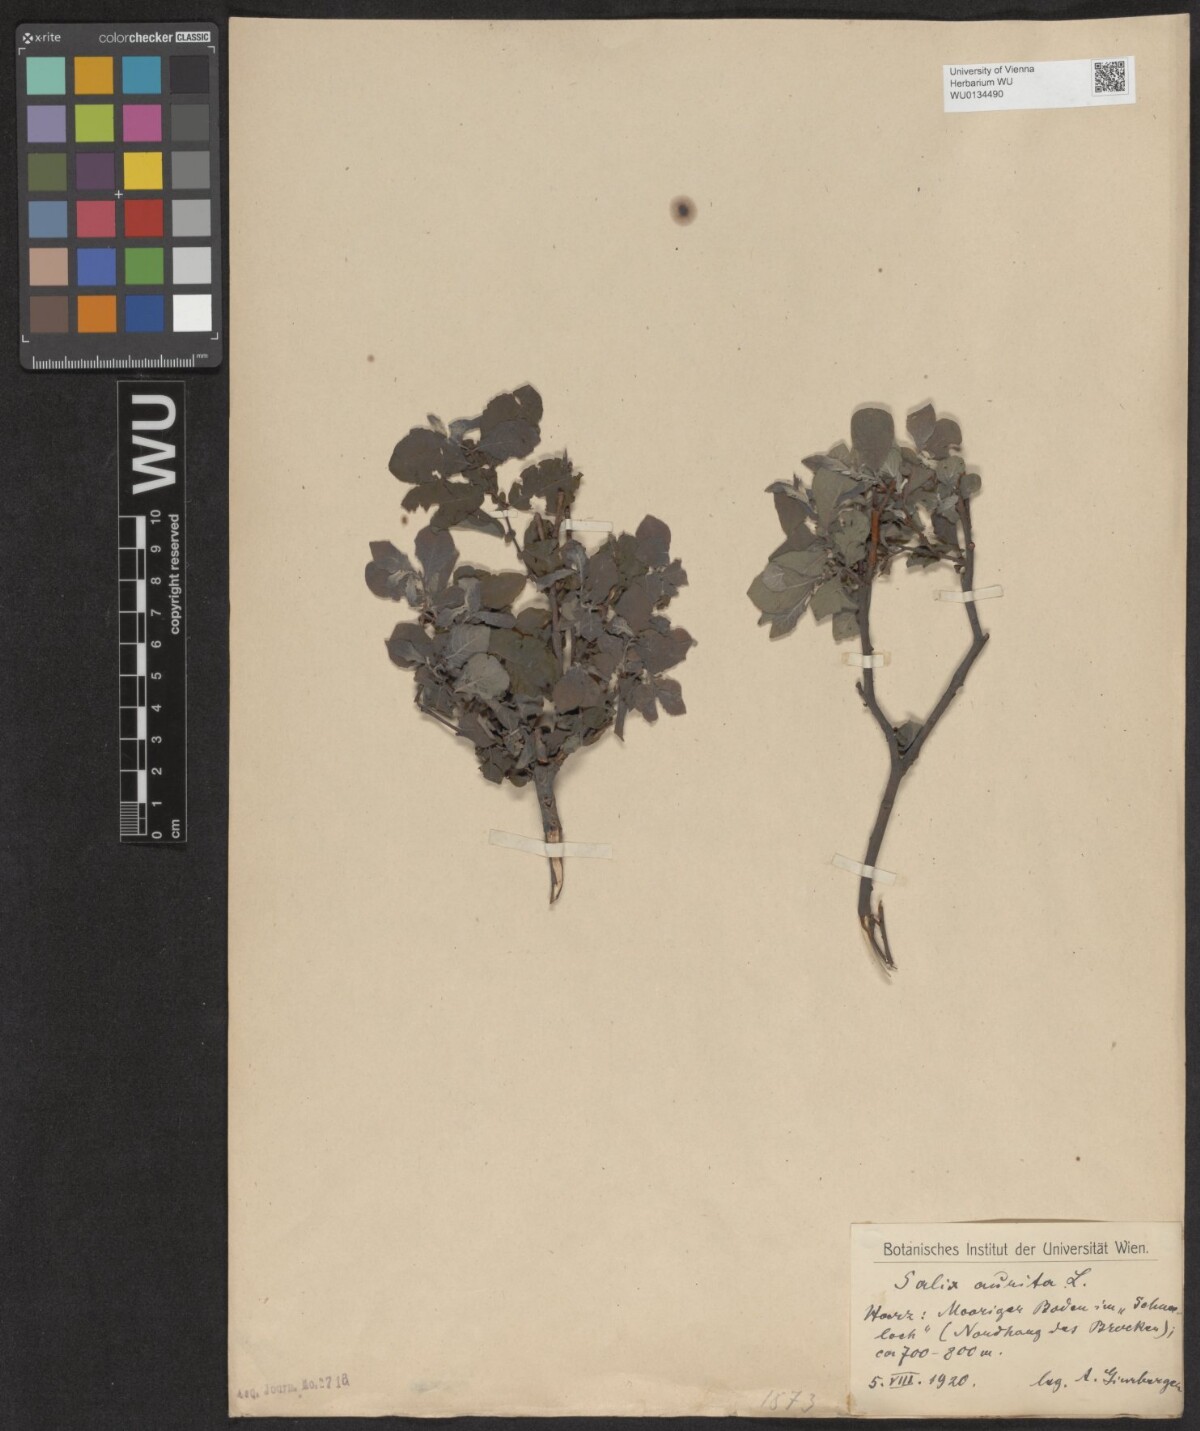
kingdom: Plantae
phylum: Tracheophyta
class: Magnoliopsida
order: Malpighiales
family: Salicaceae
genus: Salix
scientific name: Salix aurita
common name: Eared willow
